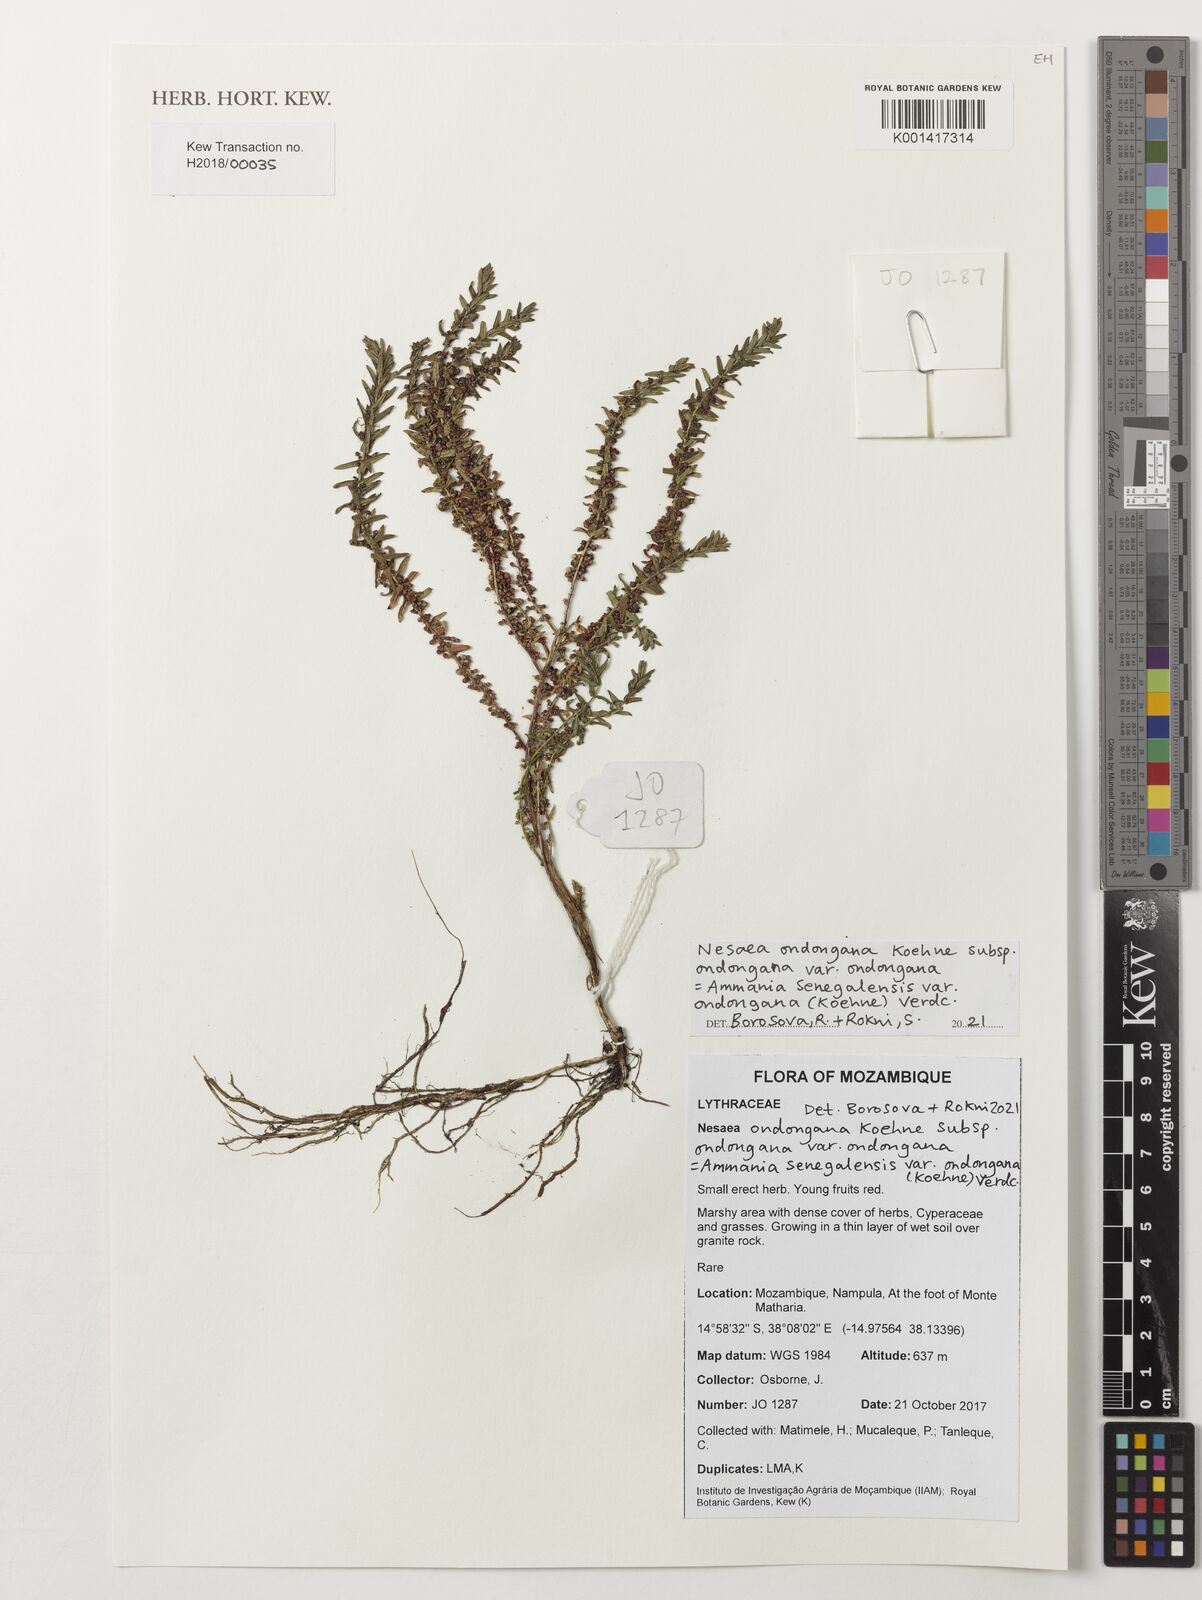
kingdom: Plantae
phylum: Tracheophyta
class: Magnoliopsida
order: Myrtales
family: Lythraceae
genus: Ammannia
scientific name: Ammannia senegalensis
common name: Red ammannia
